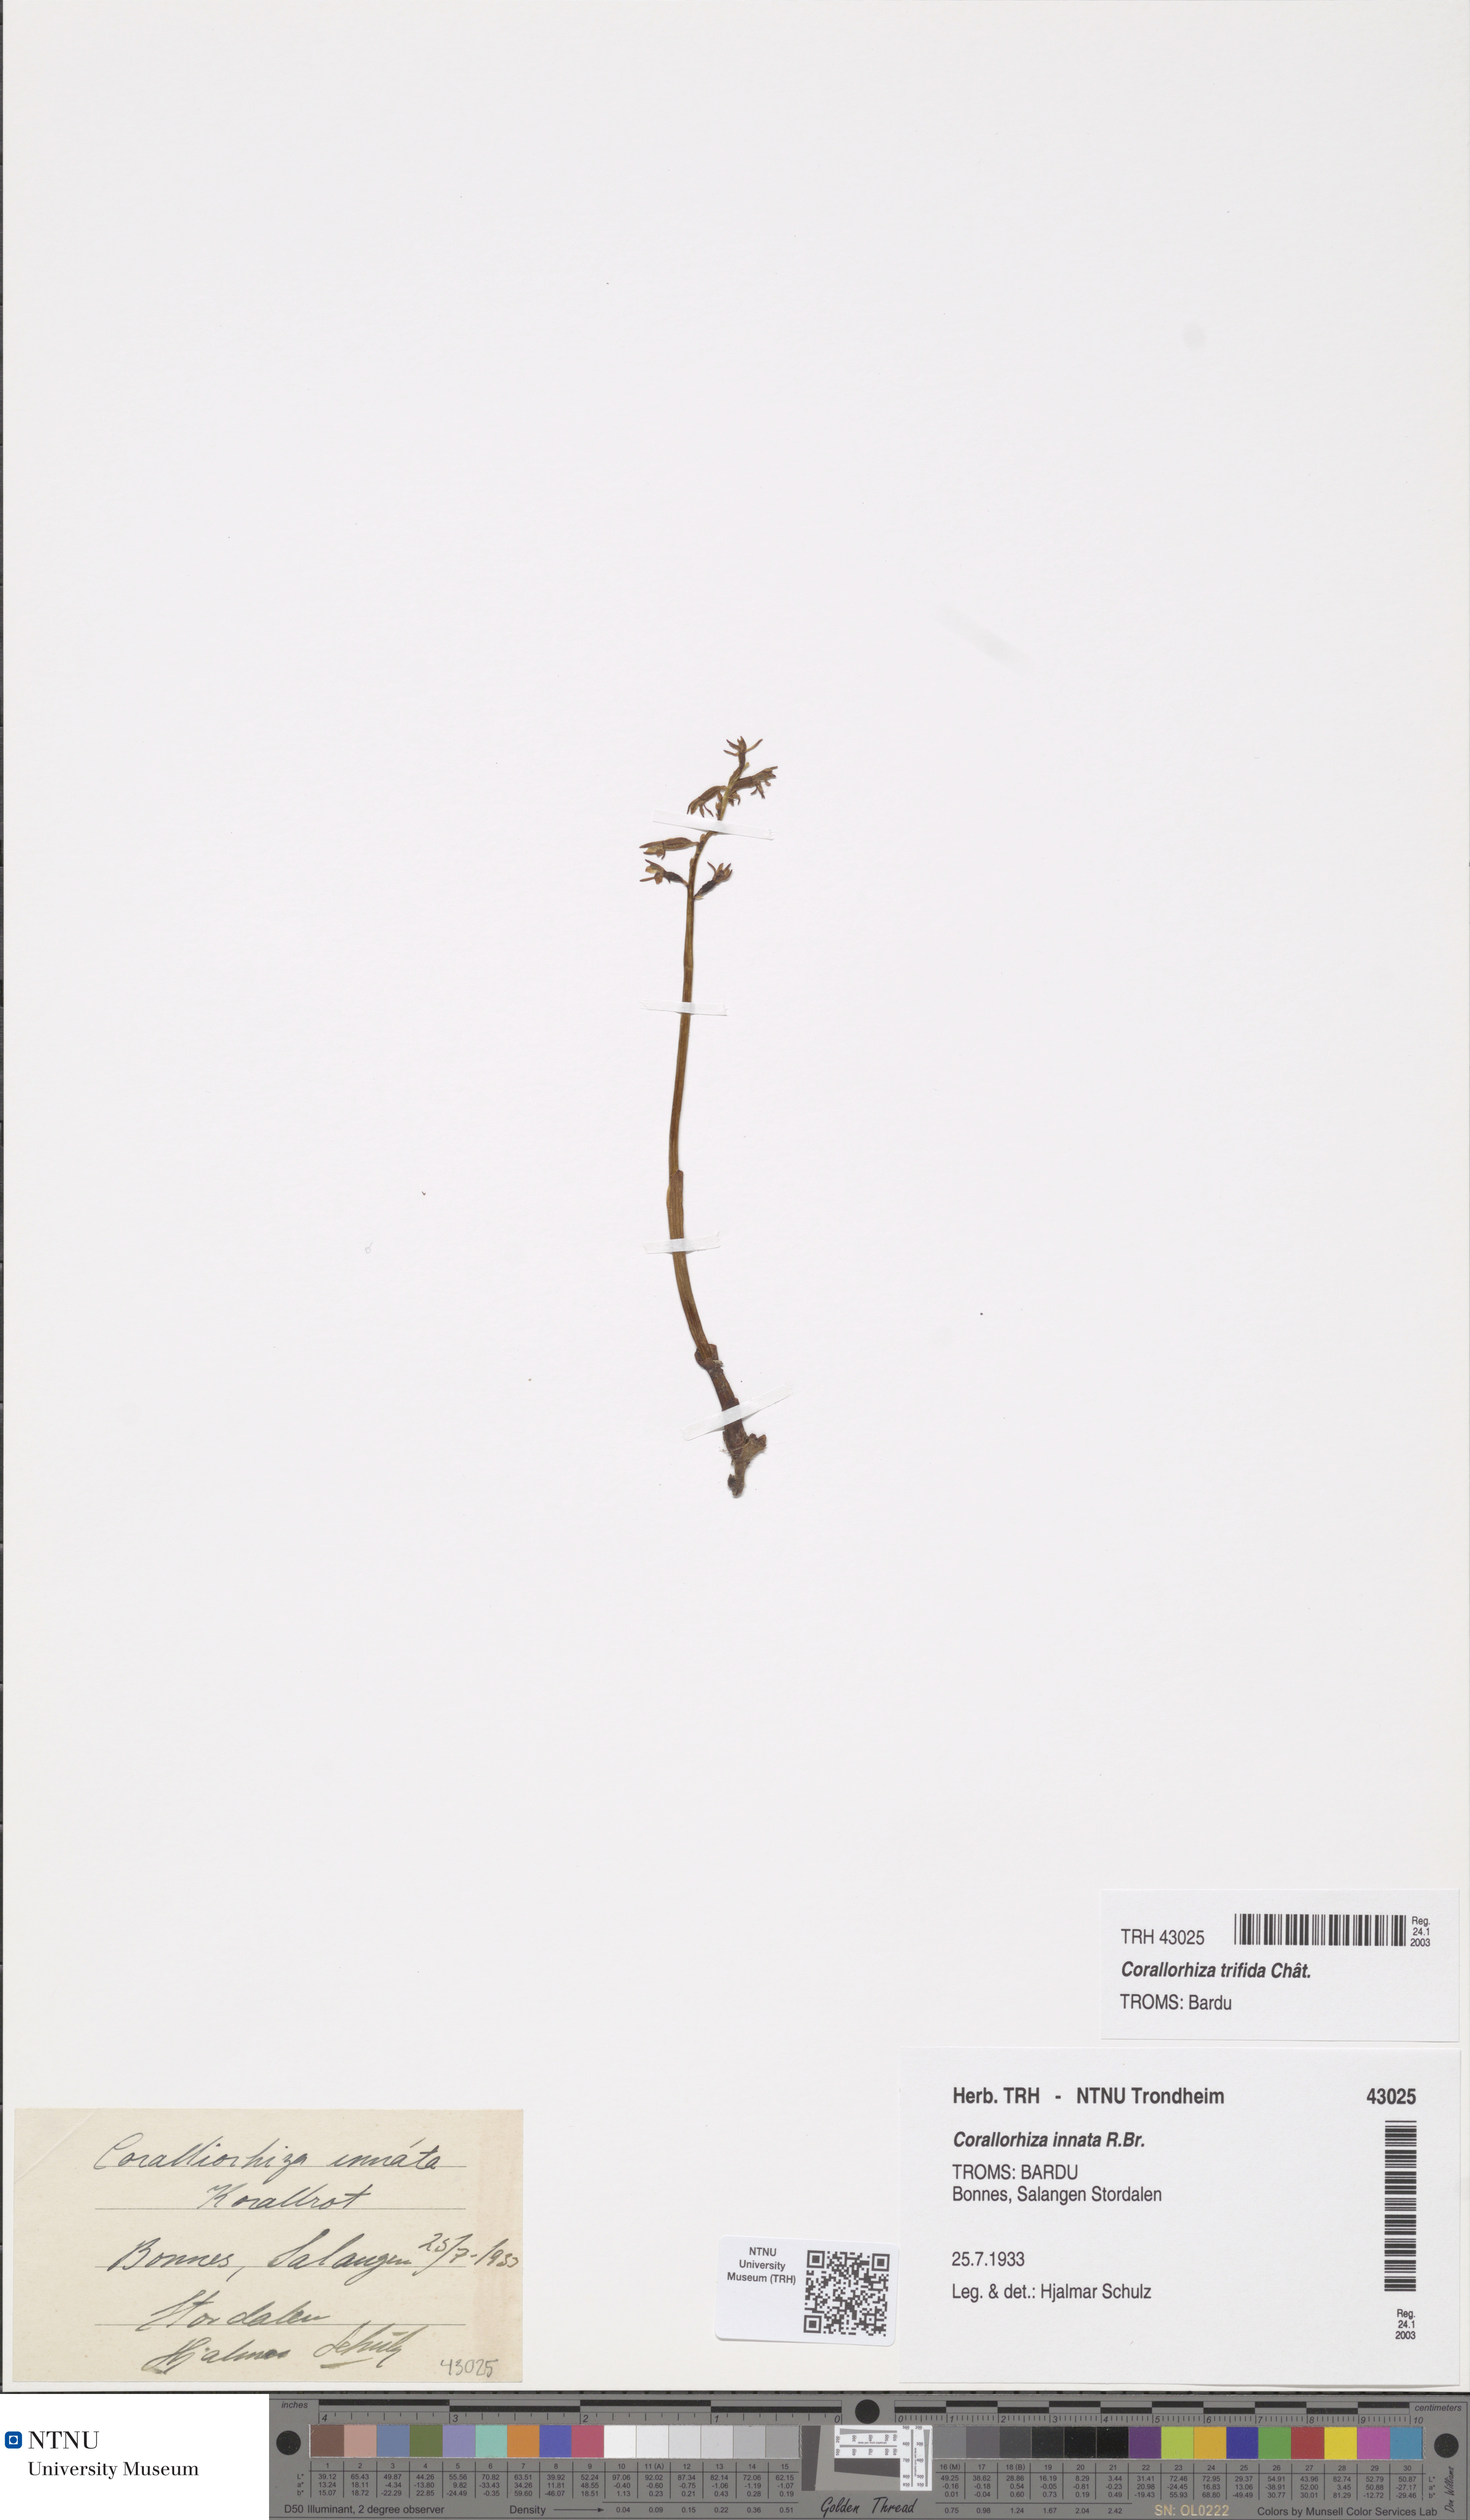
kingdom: Plantae
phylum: Tracheophyta
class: Liliopsida
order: Asparagales
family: Orchidaceae
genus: Corallorhiza
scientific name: Corallorhiza trifida
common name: Yellow coralroot
